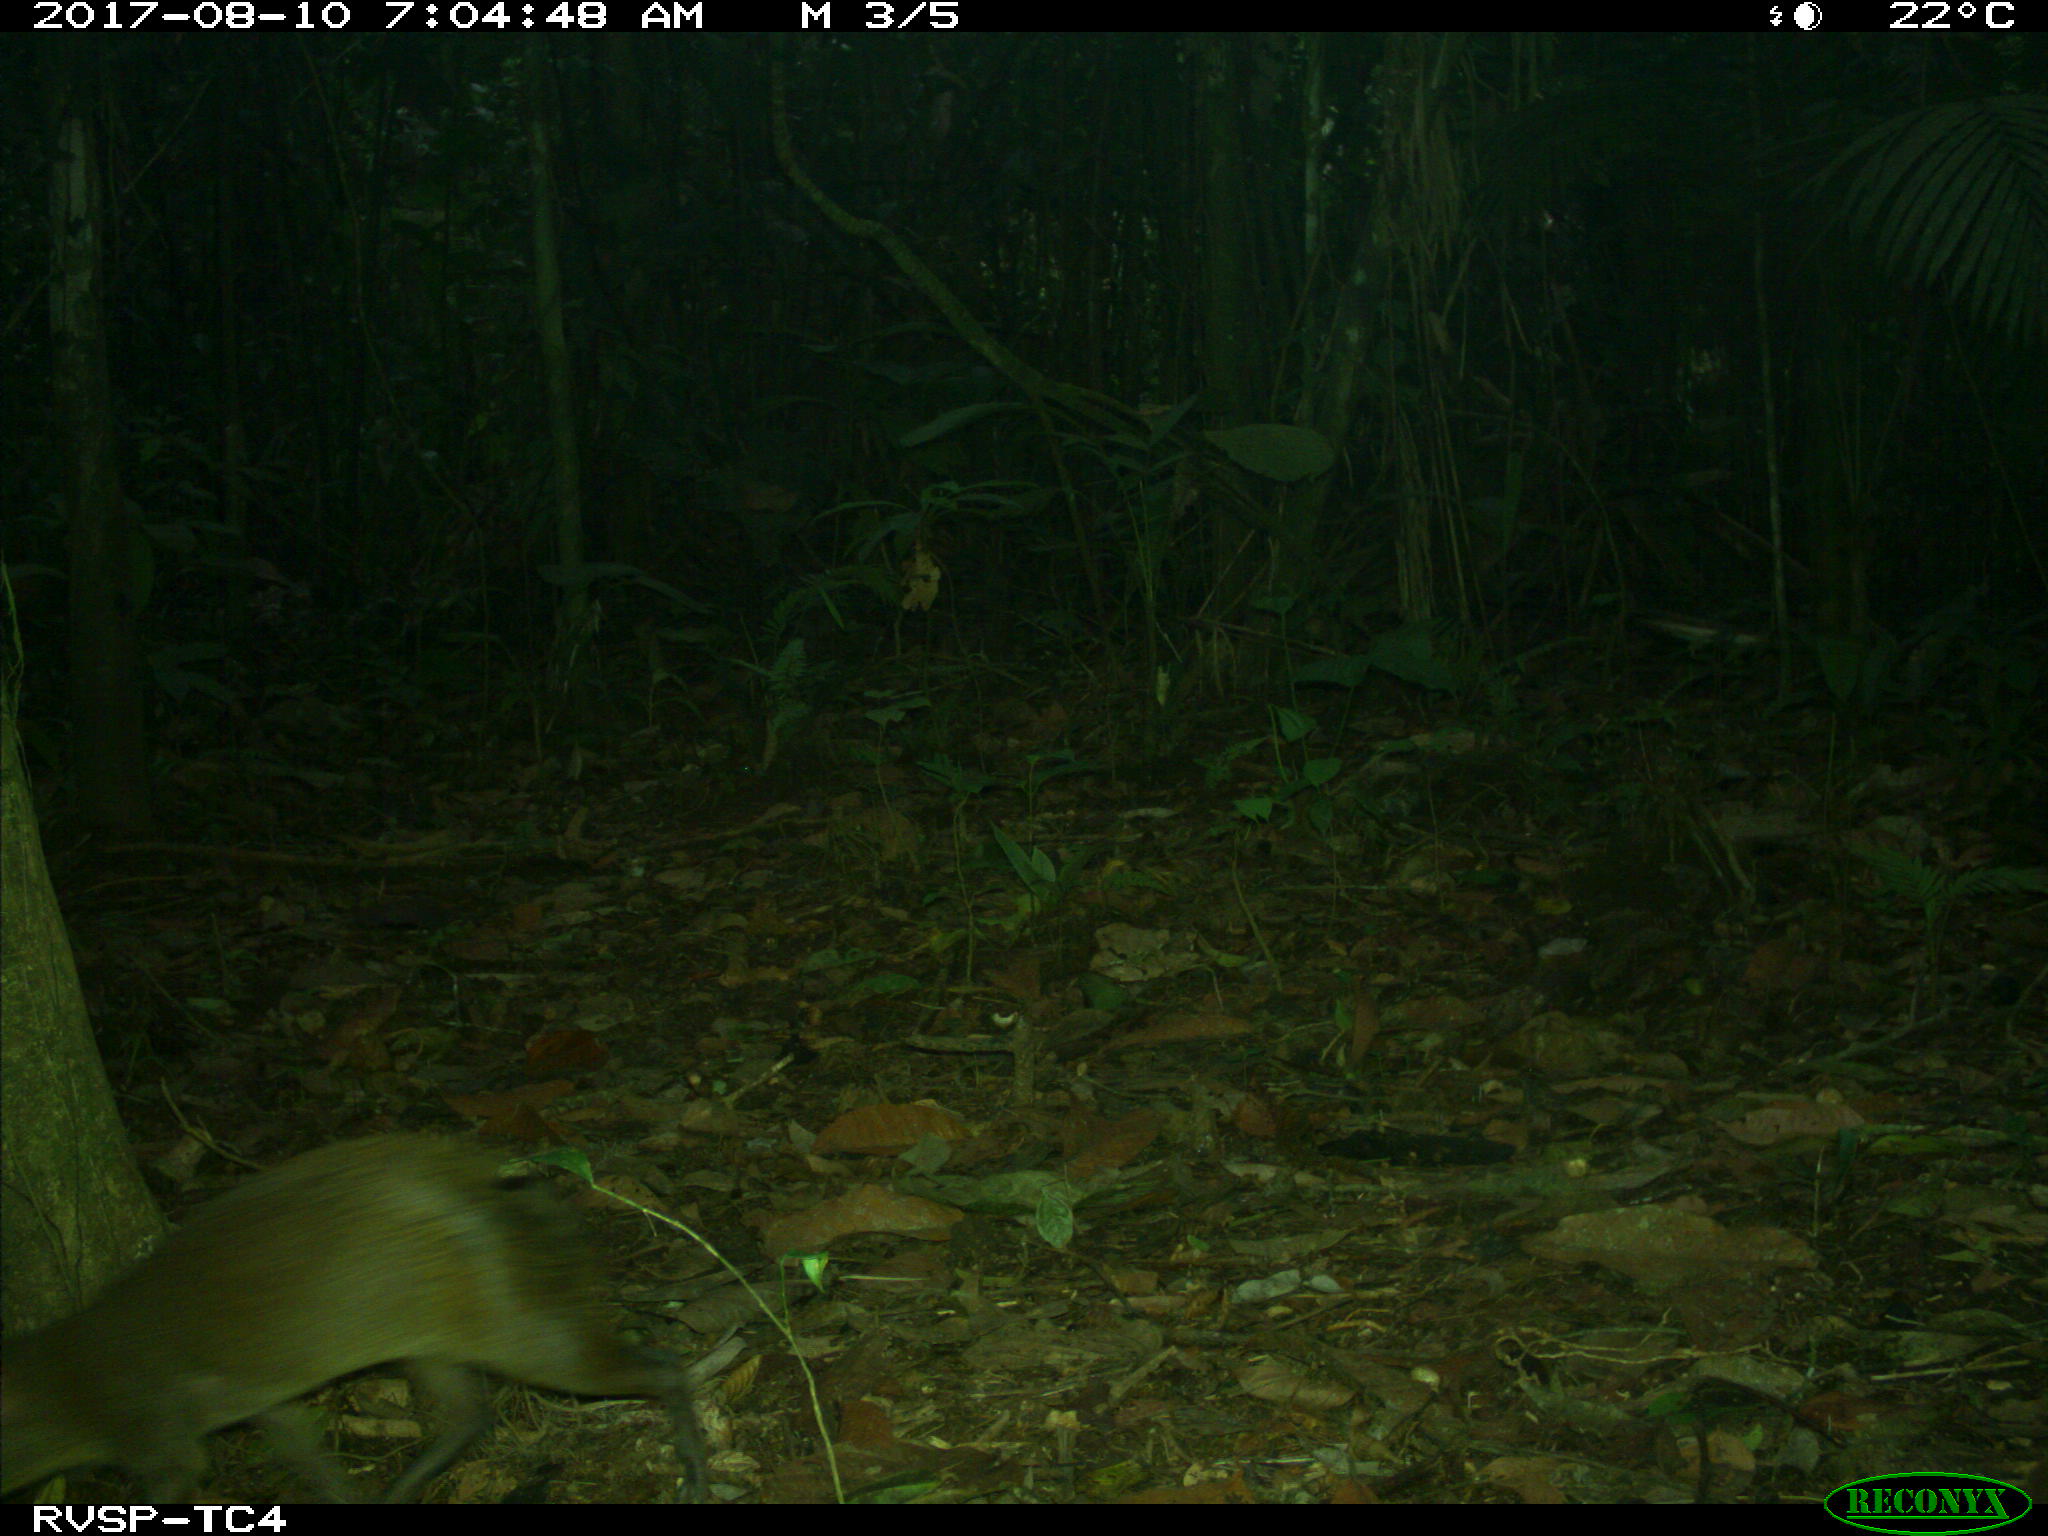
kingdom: Animalia
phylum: Chordata
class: Mammalia
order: Rodentia
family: Dasyproctidae
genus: Dasyprocta
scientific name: Dasyprocta punctata
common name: Central american agouti
